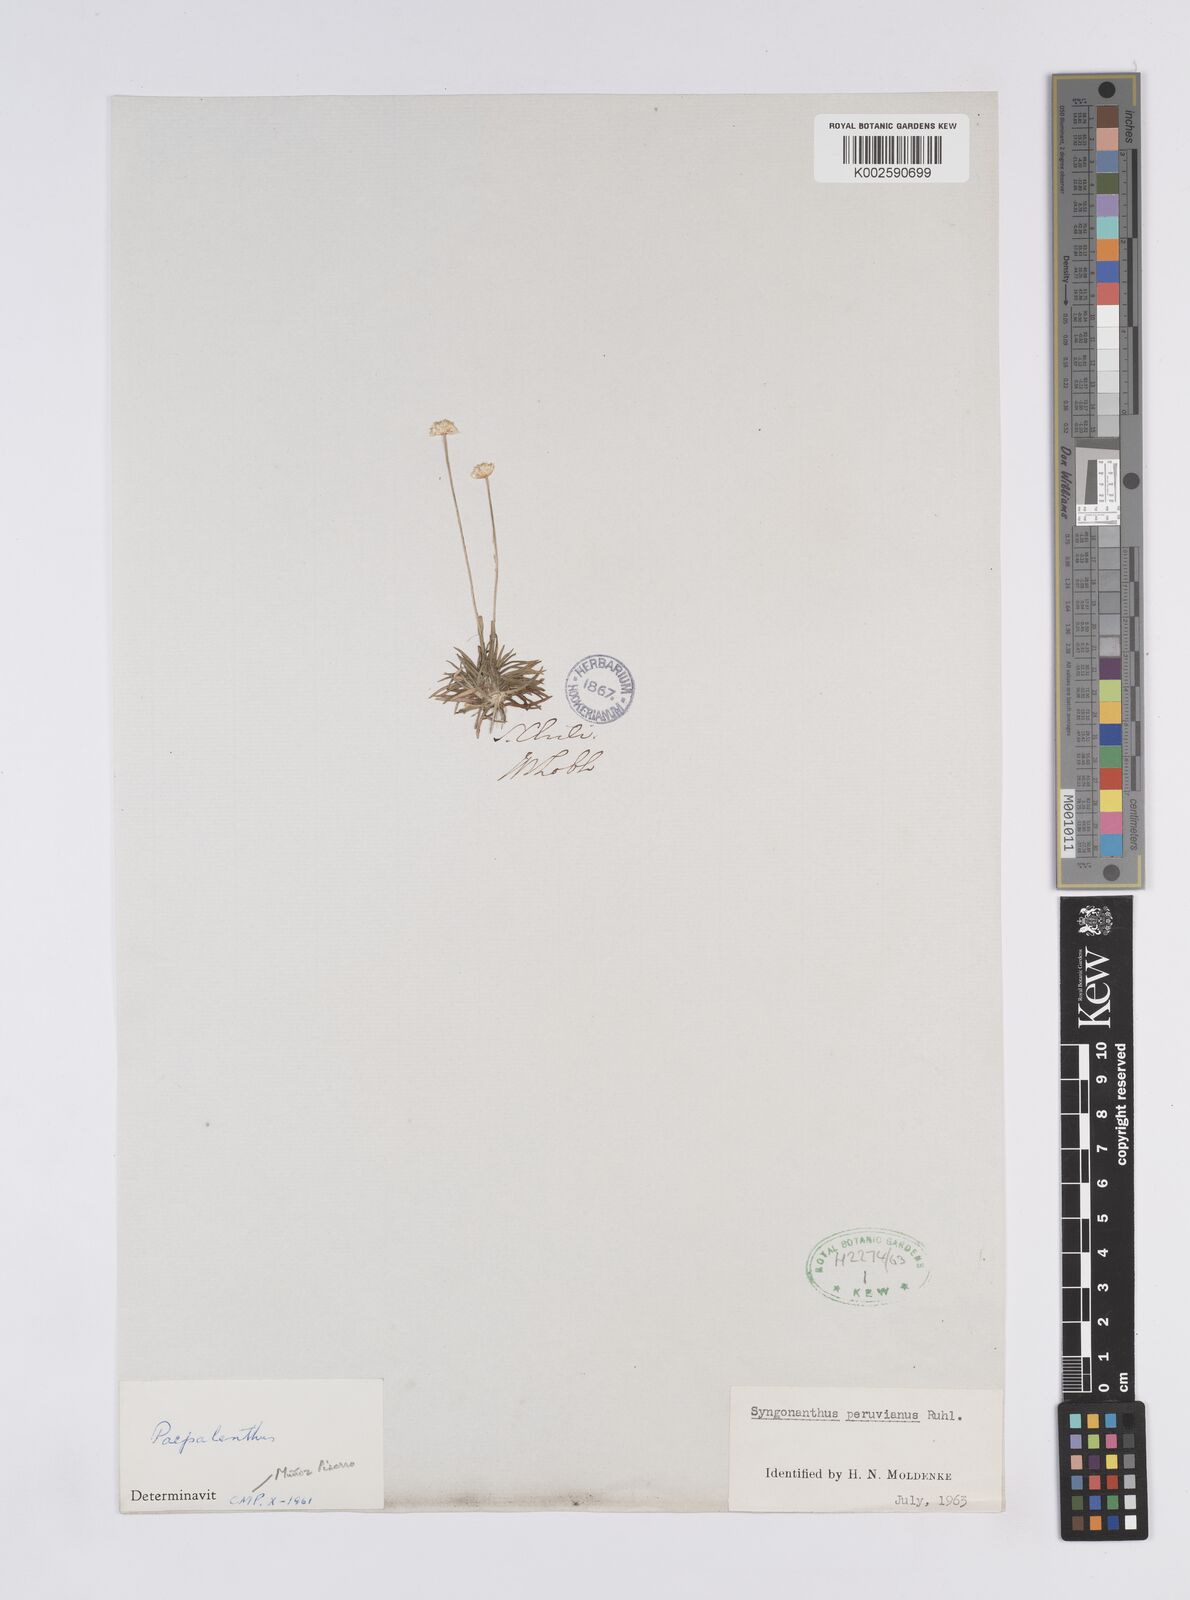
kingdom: Plantae
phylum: Tracheophyta
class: Liliopsida
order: Poales
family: Eriocaulaceae
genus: Syngonanthus
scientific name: Syngonanthus peruvianus
